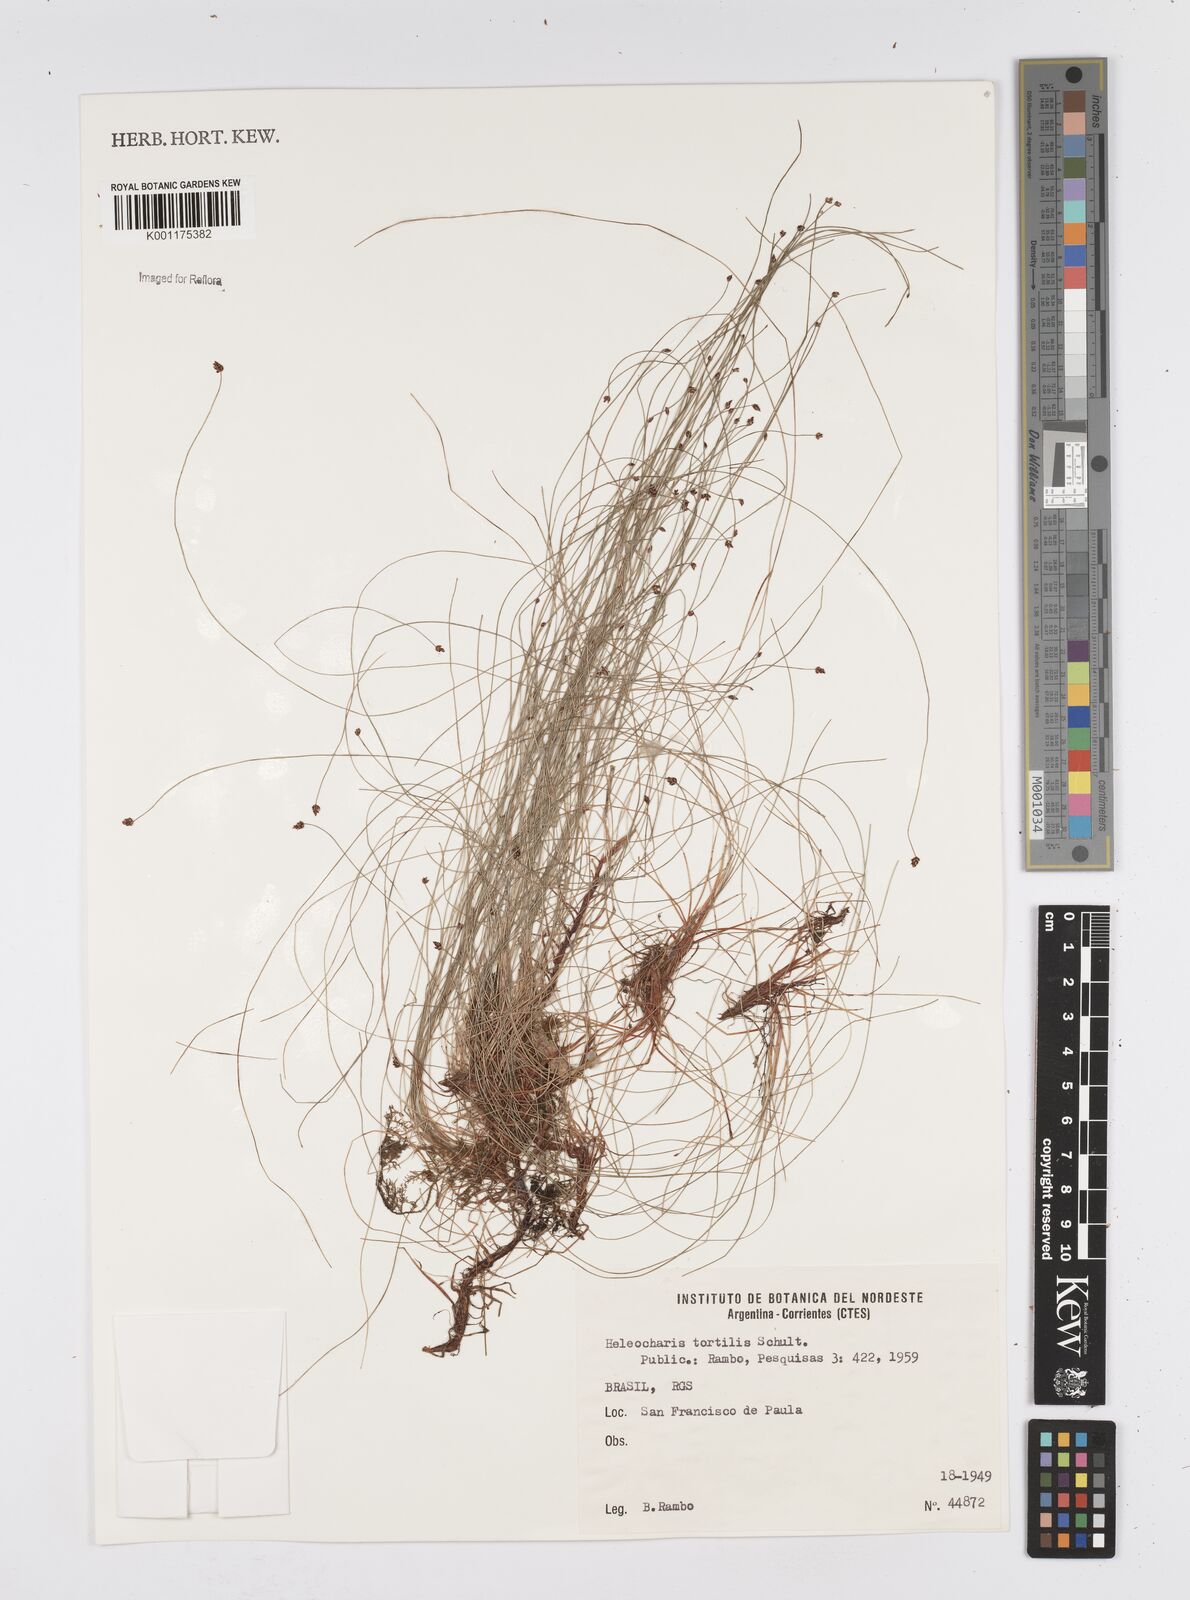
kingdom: Plantae
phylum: Tracheophyta
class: Liliopsida
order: Poales
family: Cyperaceae
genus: Eleocharis
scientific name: Eleocharis tortilis
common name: Twisted spike sedge
